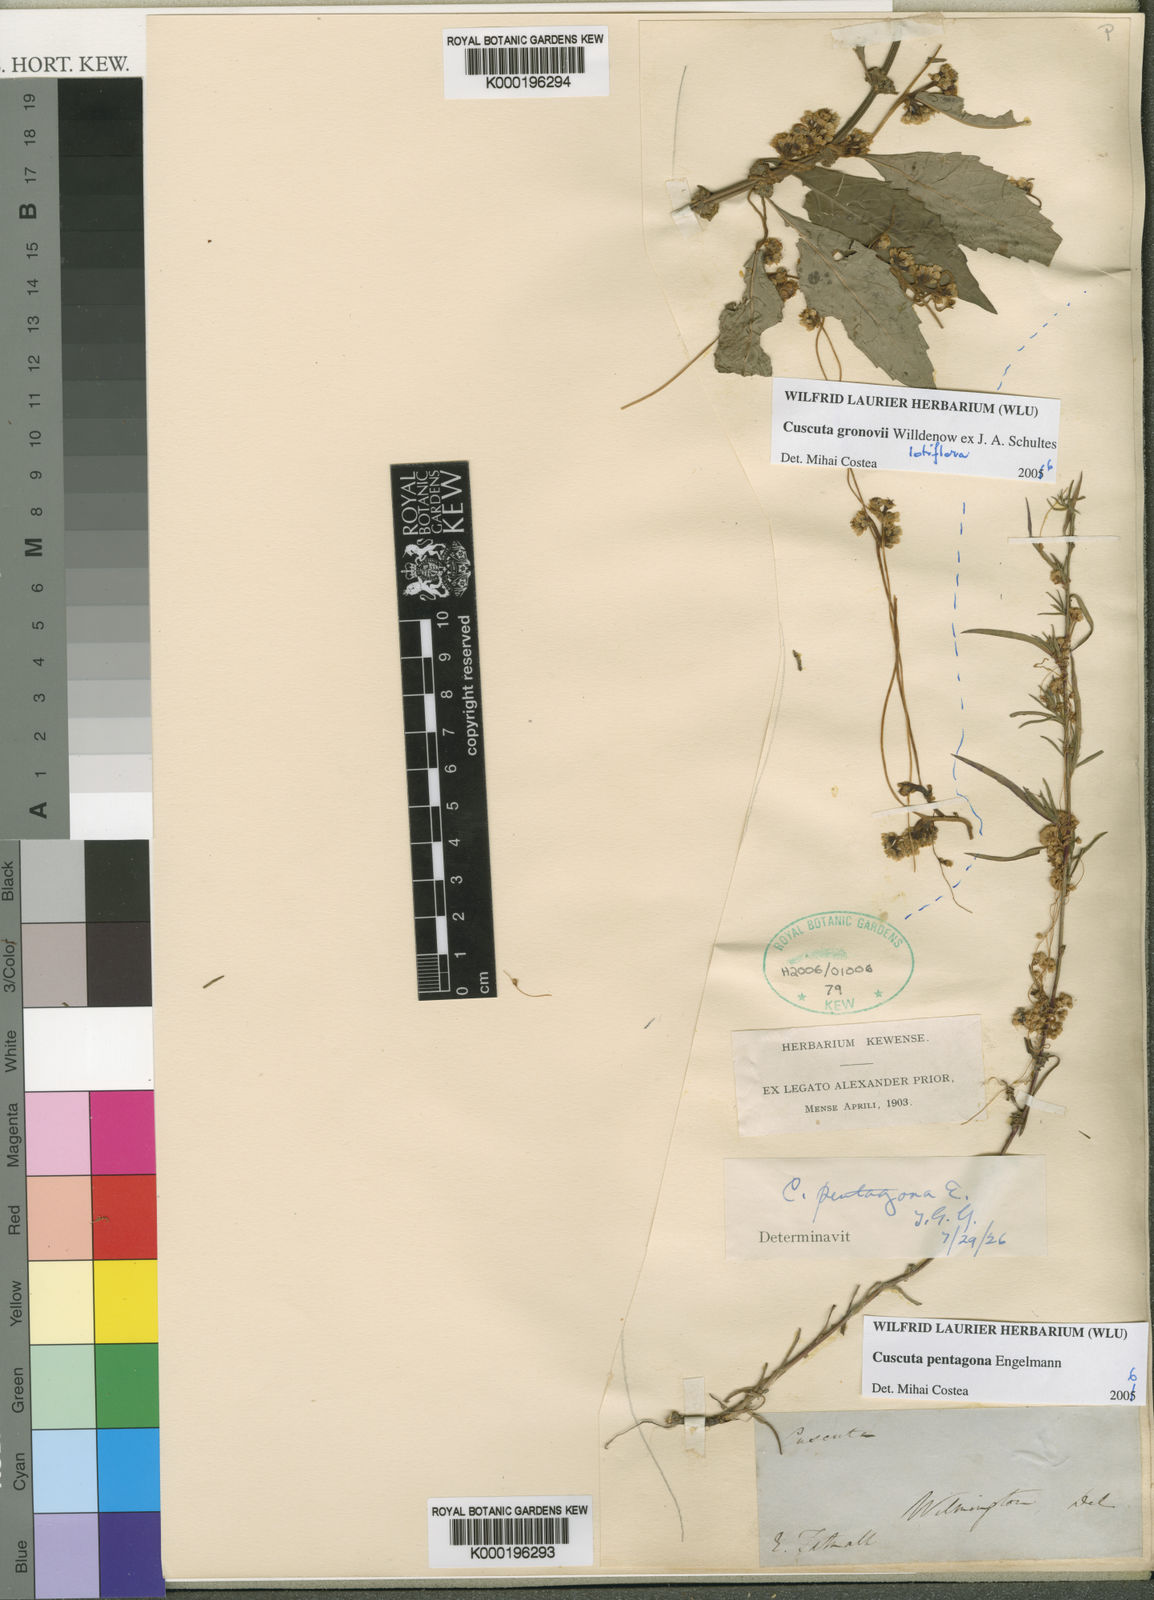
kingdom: Plantae
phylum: Tracheophyta
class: Magnoliopsida
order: Solanales
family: Convolvulaceae
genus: Cuscuta
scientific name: Cuscuta pentagona
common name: Fiveangled dodder
